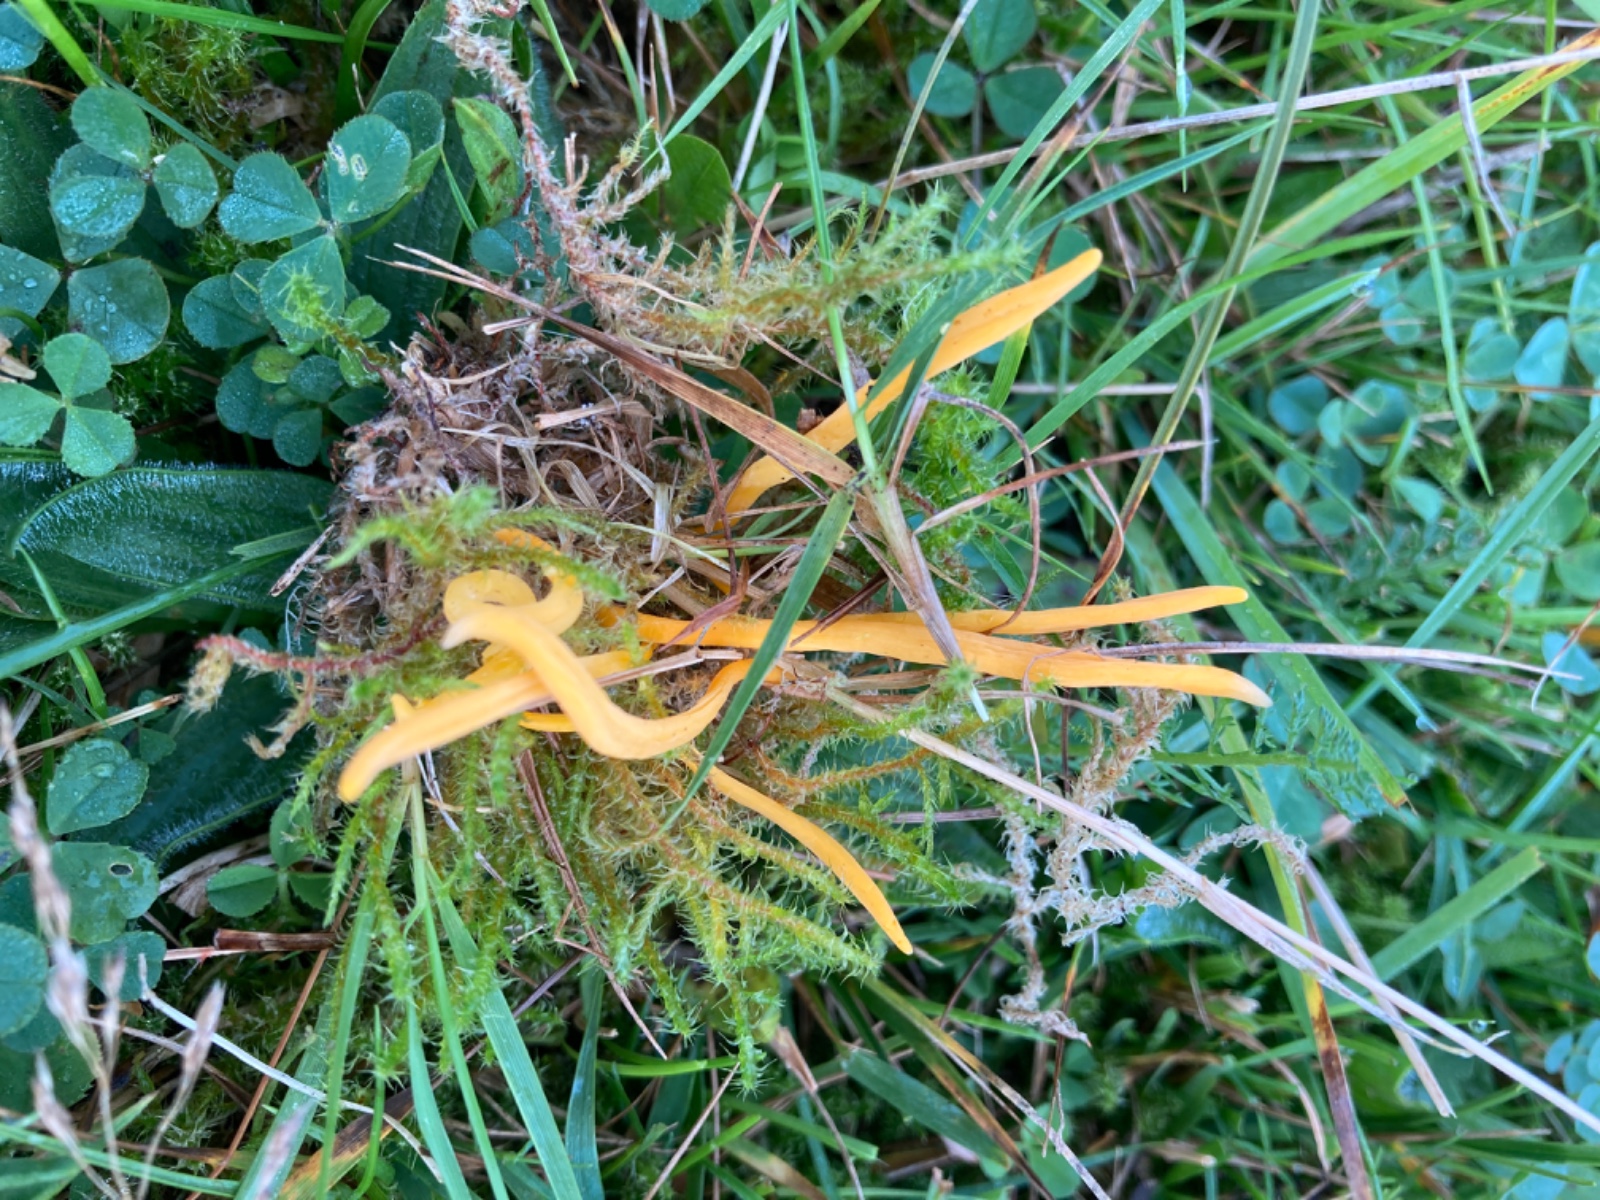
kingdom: Fungi
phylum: Basidiomycota
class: Agaricomycetes
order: Agaricales
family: Clavariaceae
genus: Clavulinopsis
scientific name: Clavulinopsis luteoalba
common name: abrikos-køllesvamp
